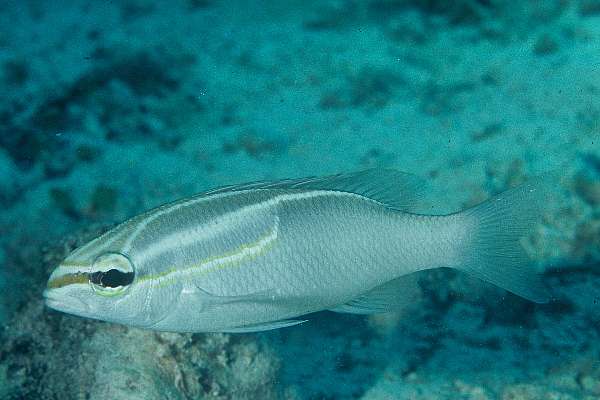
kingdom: Animalia
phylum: Chordata
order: Perciformes
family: Nemipteridae
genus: Scolopsis
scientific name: Scolopsis trilineata
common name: Three-lined monocle bream
